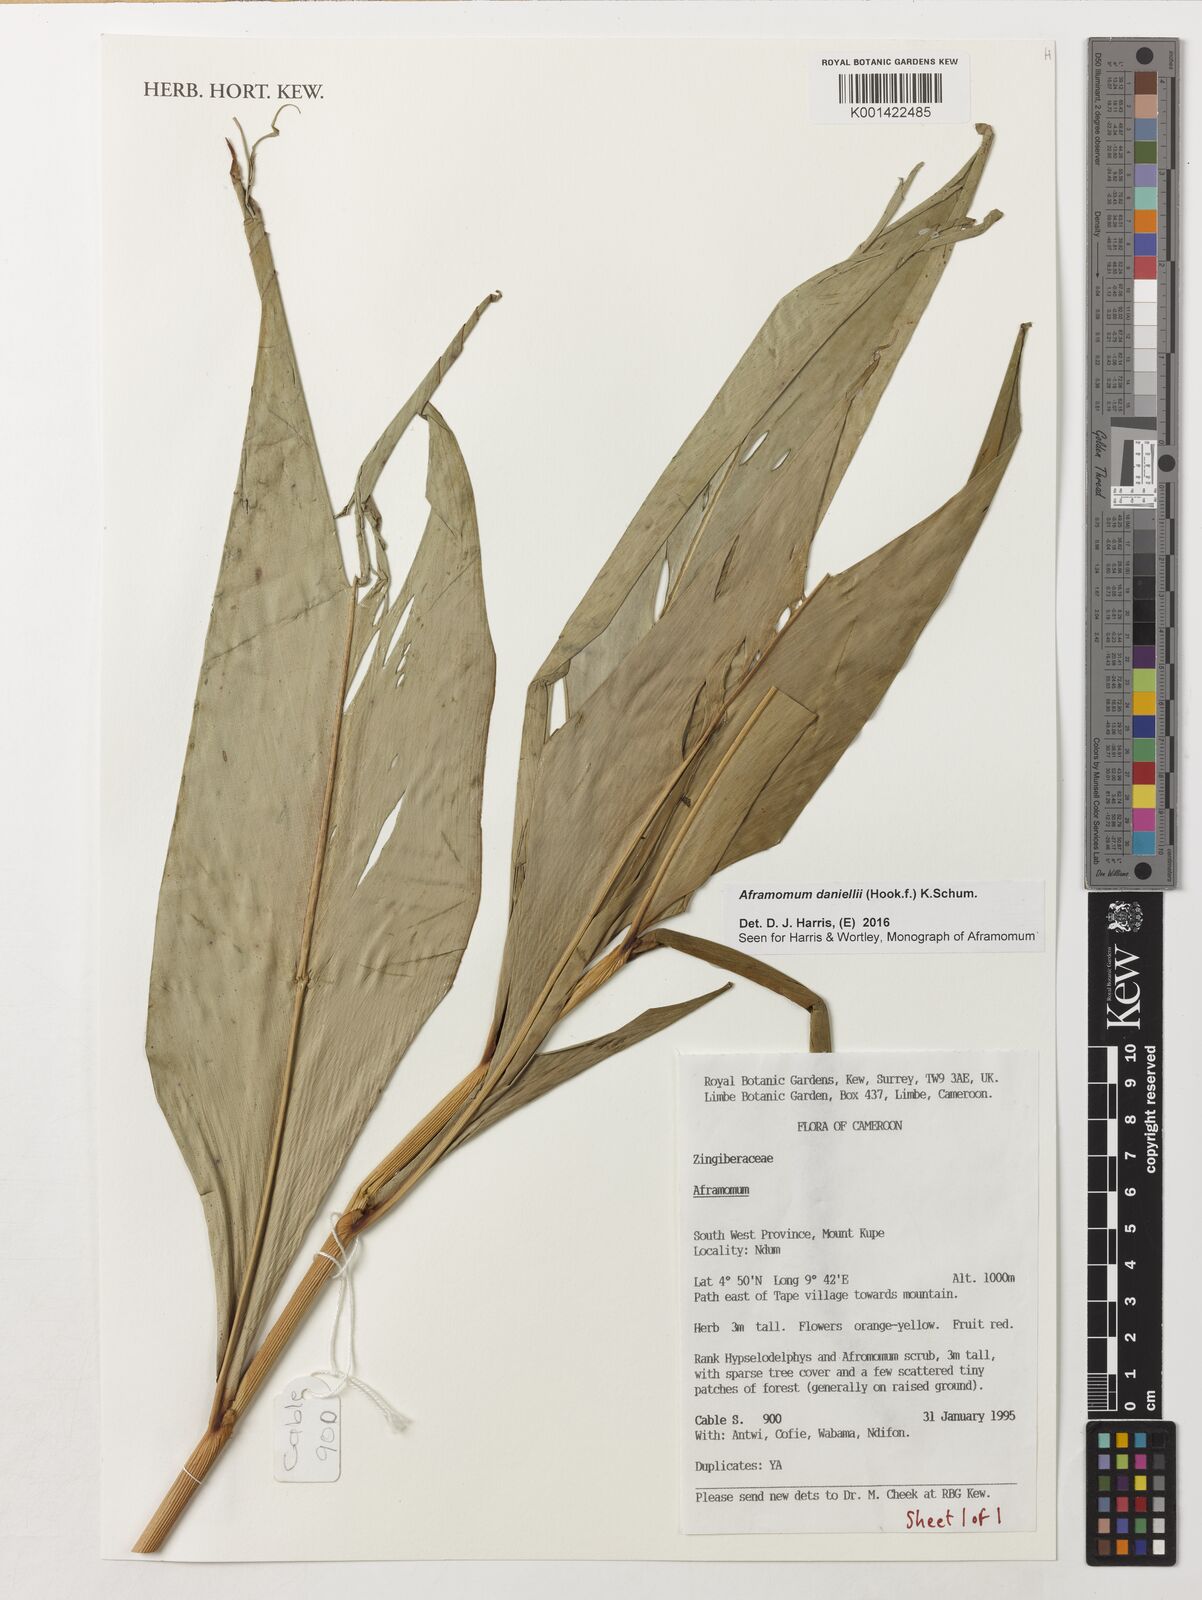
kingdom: Plantae
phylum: Tracheophyta
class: Liliopsida
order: Zingiberales
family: Zingiberaceae
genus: Aframomum
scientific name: Aframomum daniellii
